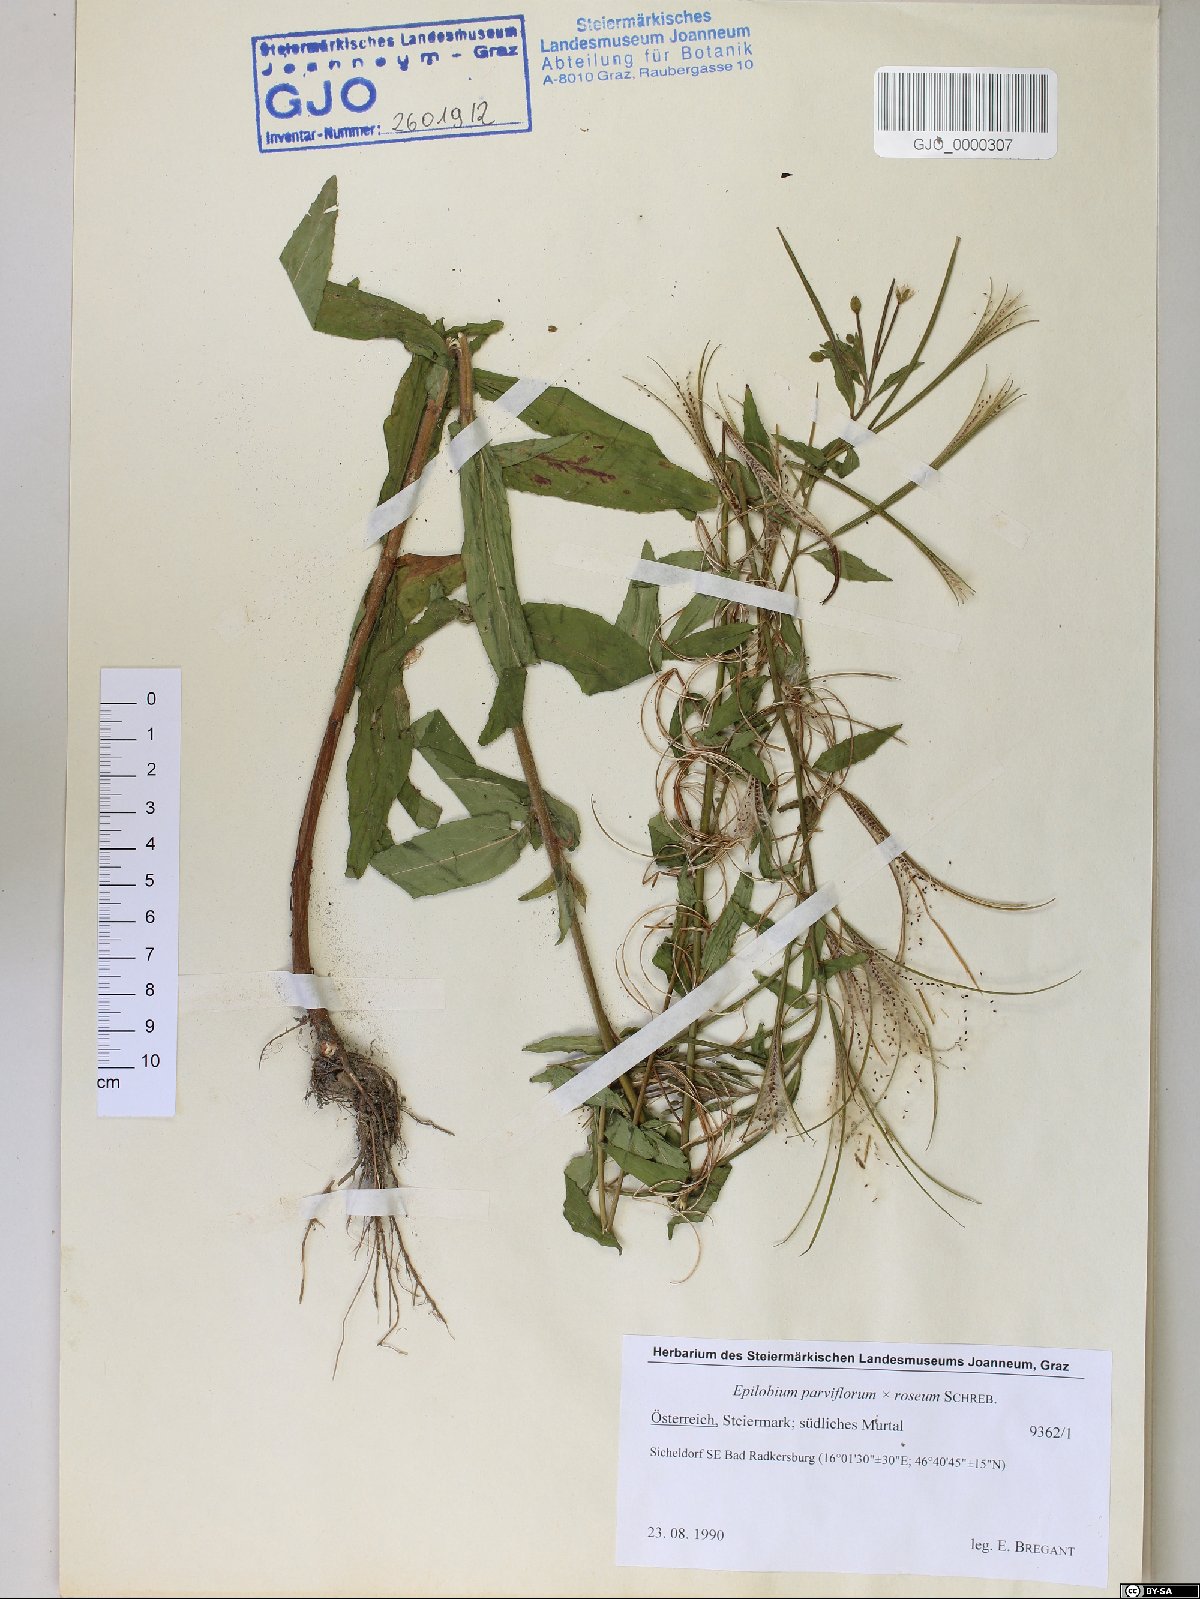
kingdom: Plantae
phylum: Tracheophyta
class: Magnoliopsida
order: Myrtales
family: Onagraceae
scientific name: Onagraceae
